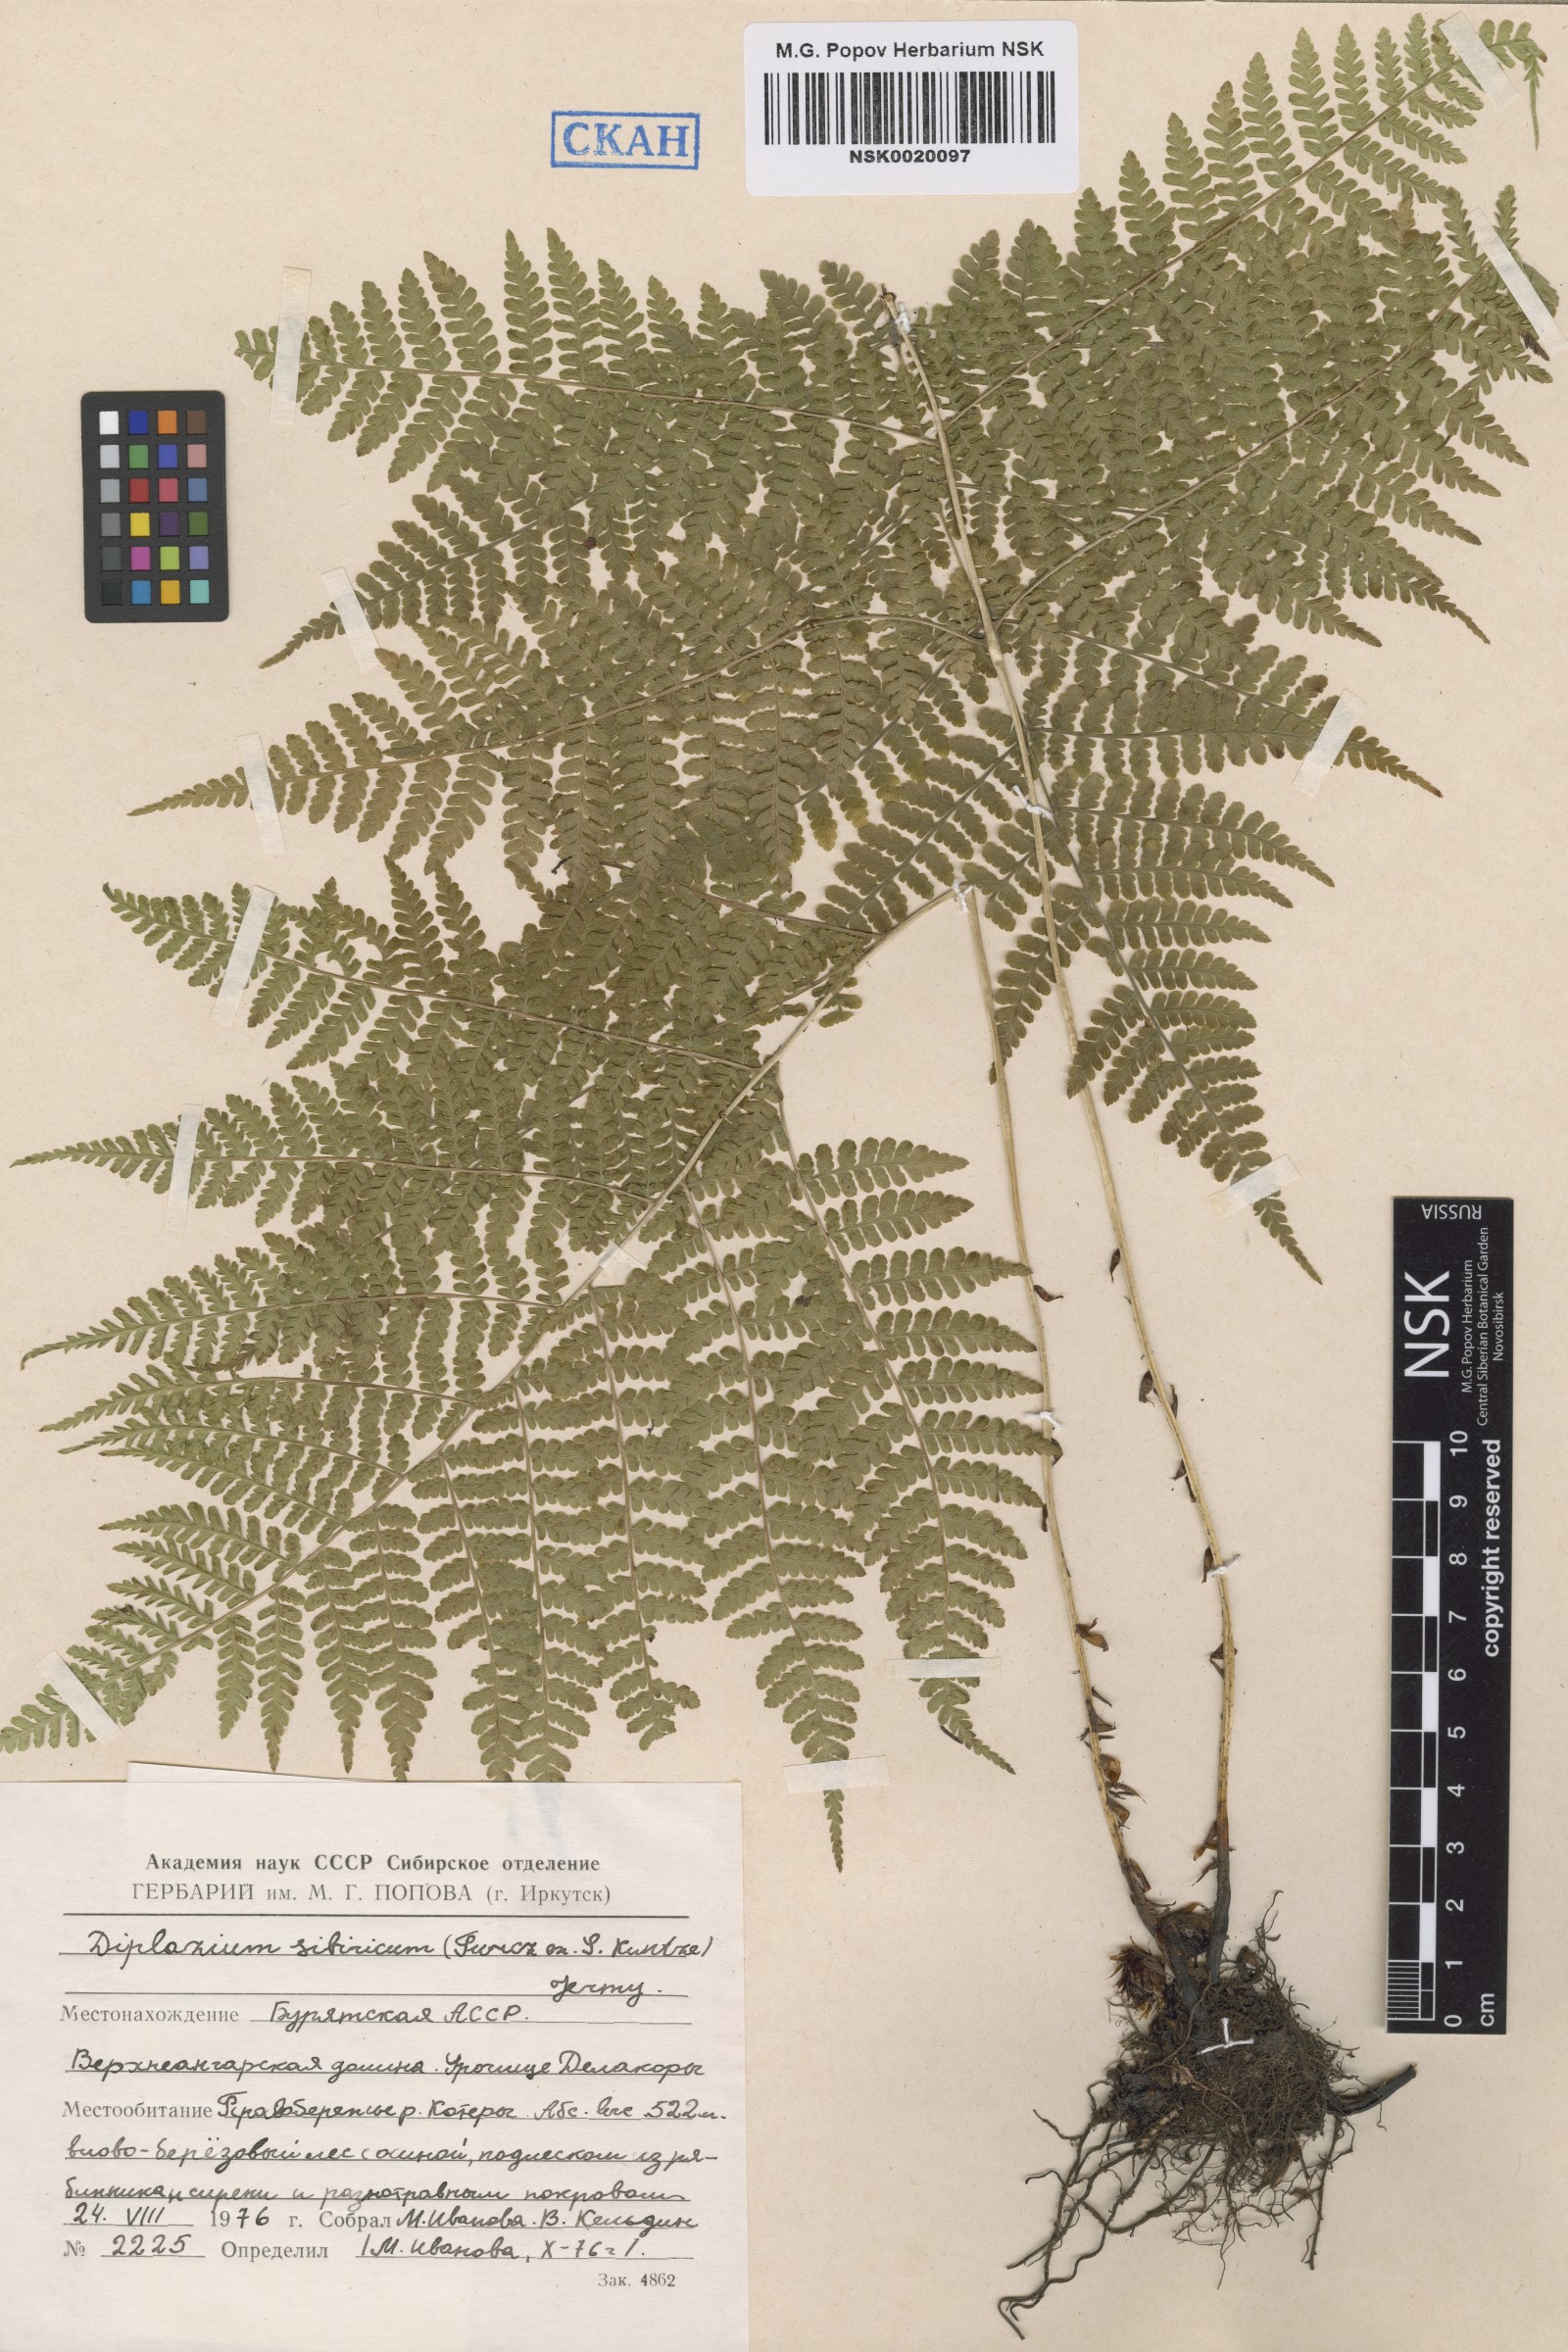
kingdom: Plantae
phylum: Tracheophyta
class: Polypodiopsida
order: Polypodiales
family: Athyriaceae
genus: Diplazium
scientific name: Diplazium sibiricum
